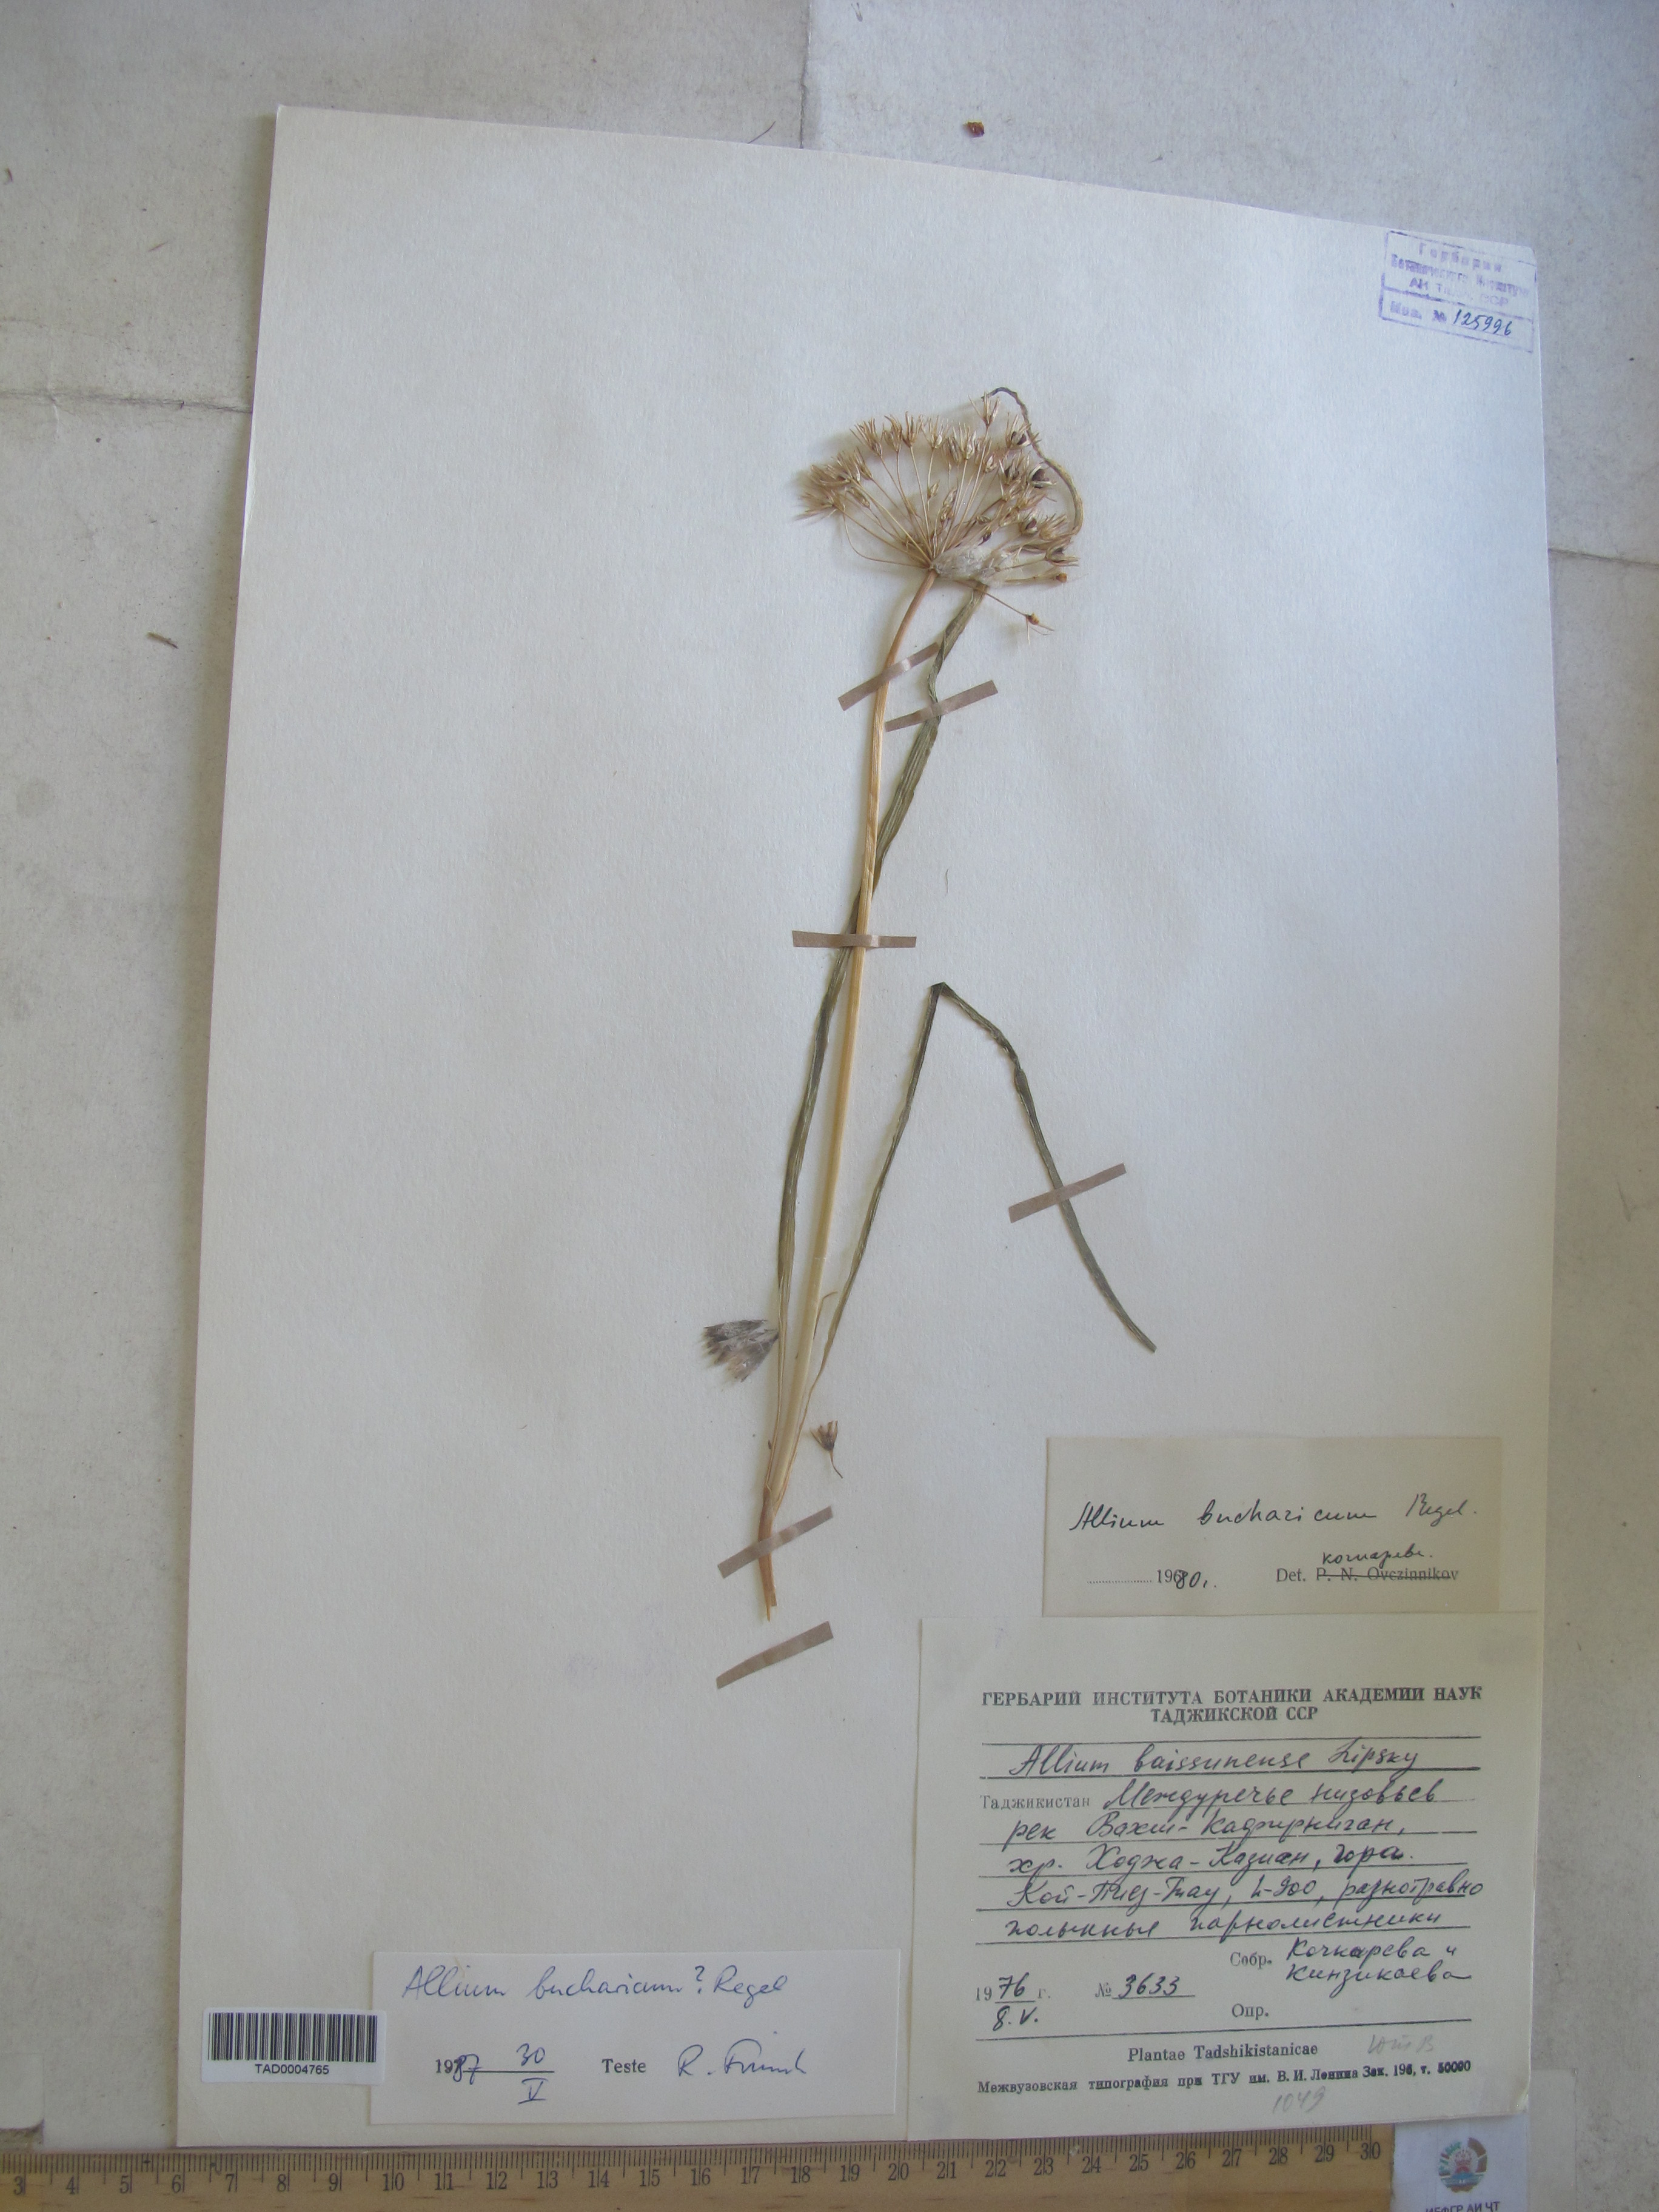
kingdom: Plantae
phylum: Tracheophyta
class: Liliopsida
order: Asparagales
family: Amaryllidaceae
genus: Allium
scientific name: Allium bucharicum
